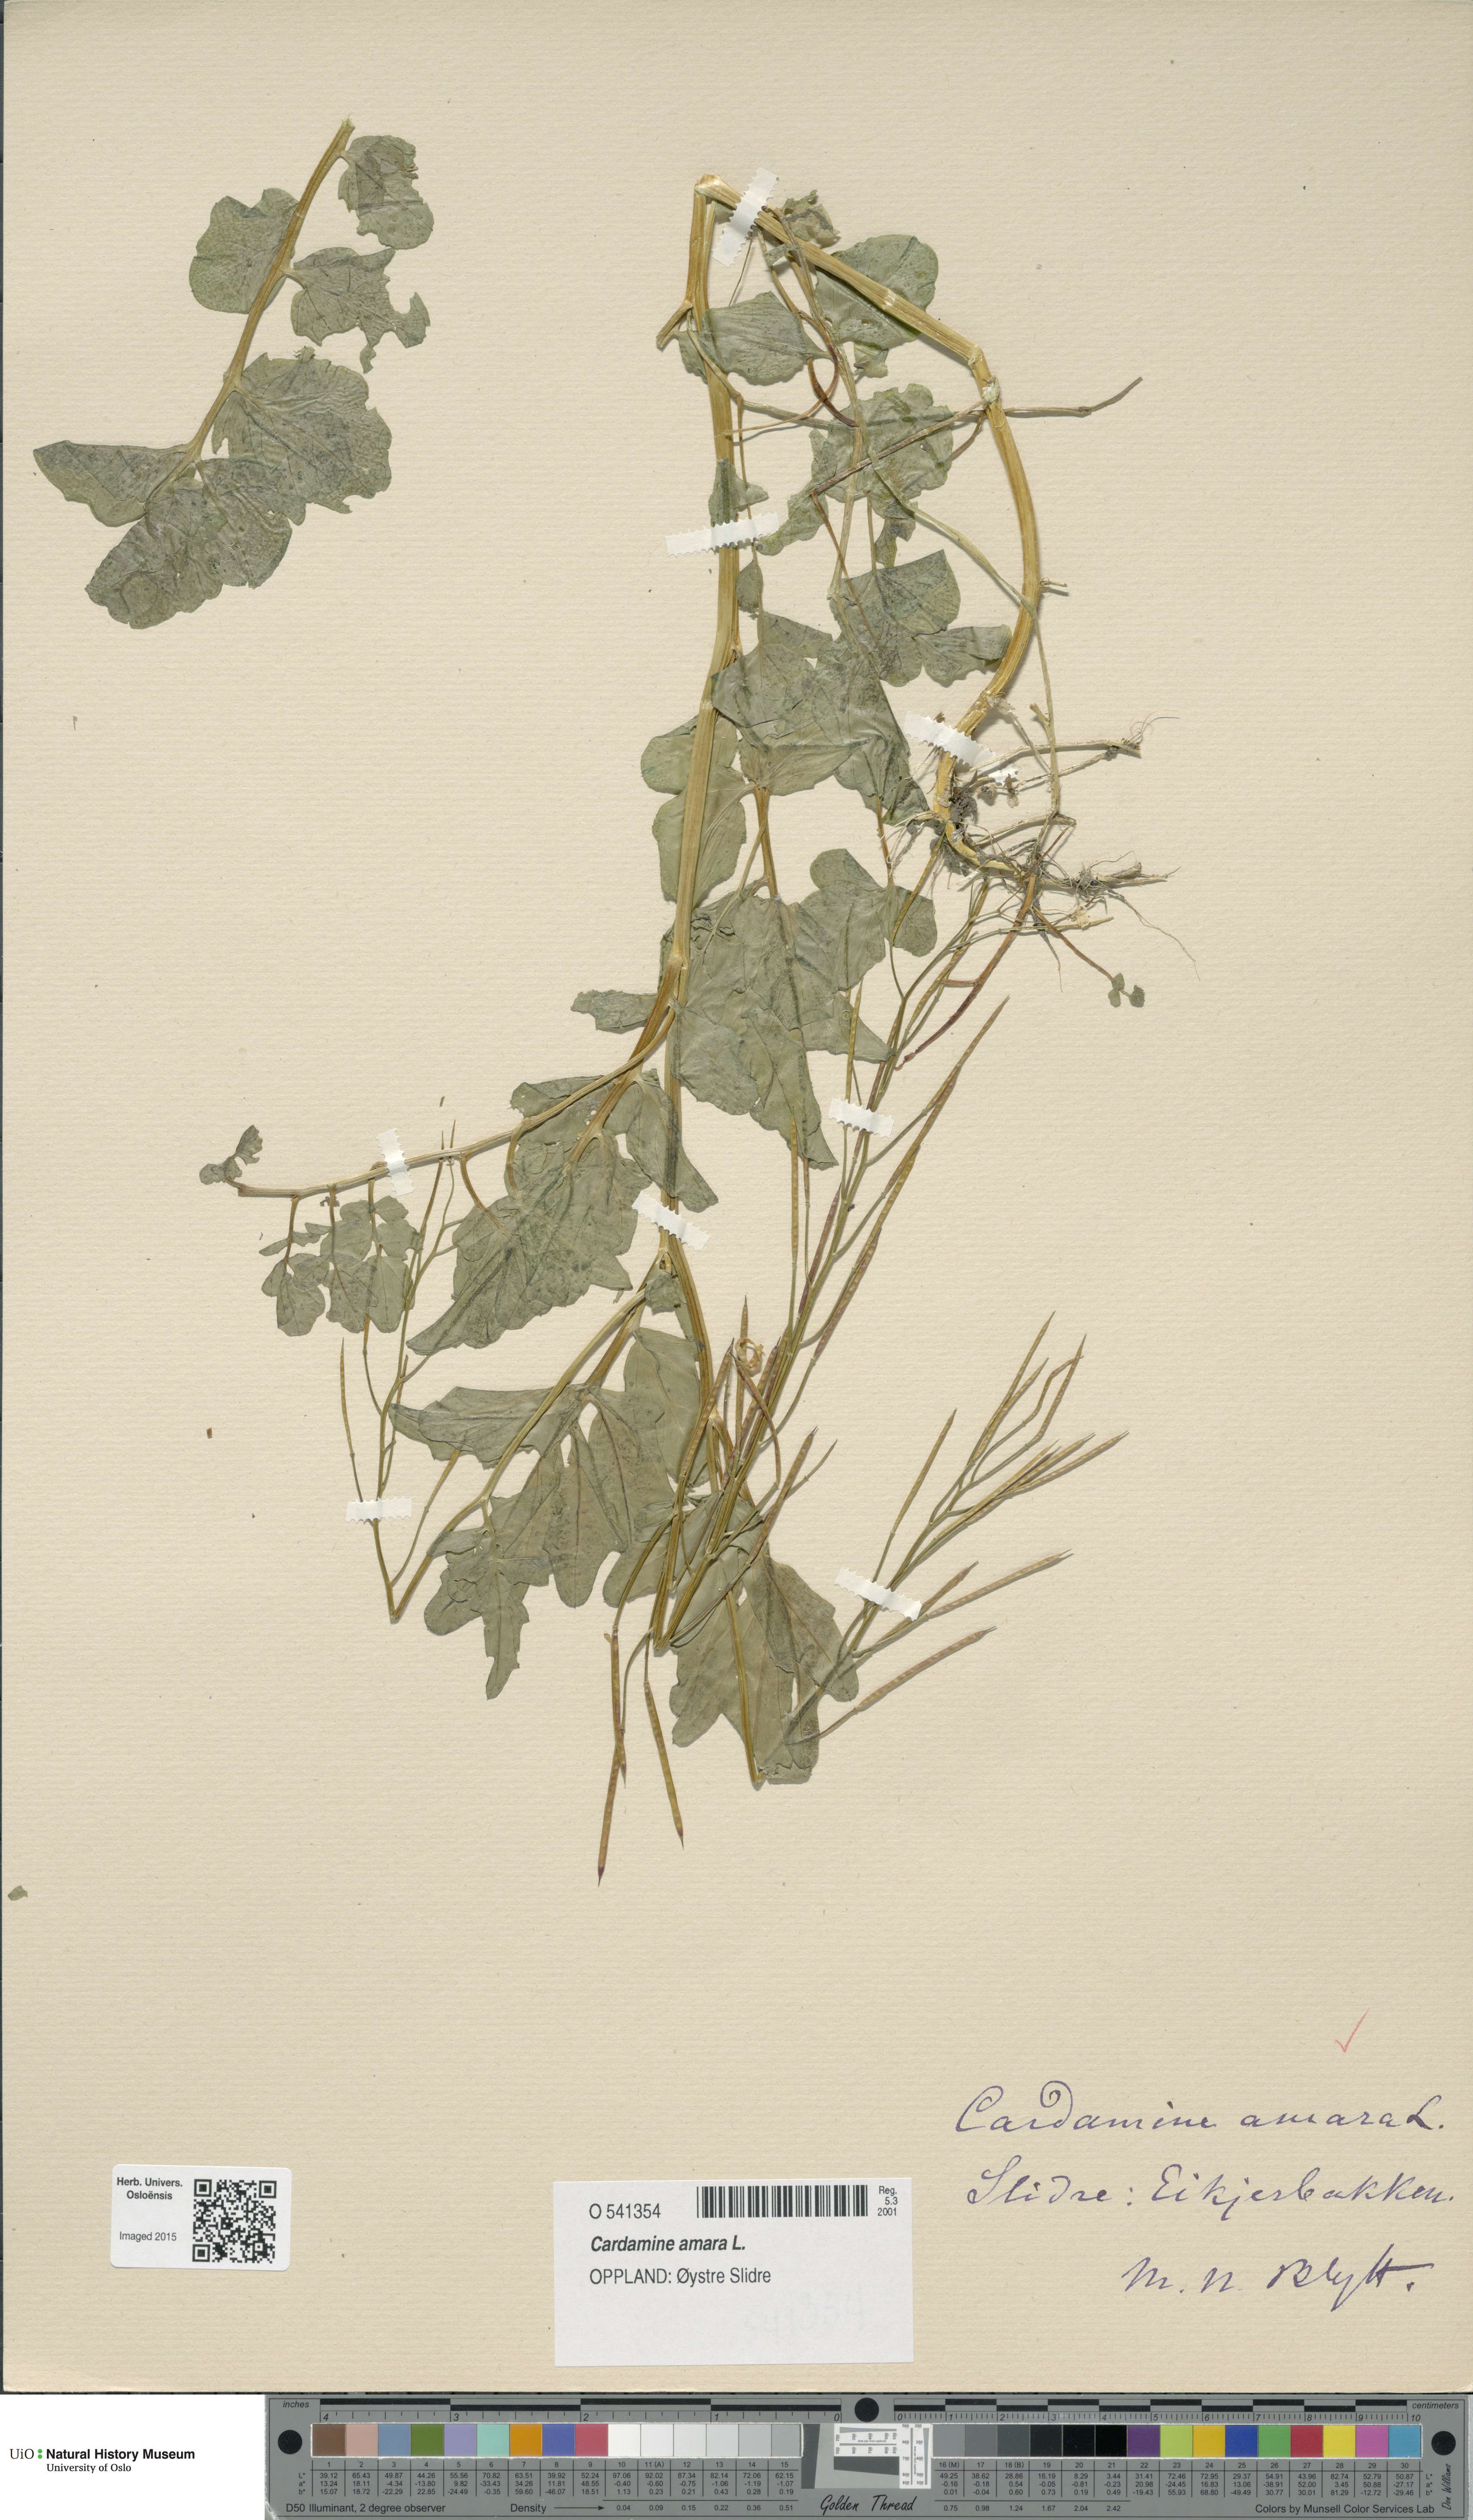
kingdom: Plantae
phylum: Tracheophyta
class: Magnoliopsida
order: Brassicales
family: Brassicaceae
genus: Cardamine
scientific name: Cardamine amara
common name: Large bitter-cress
